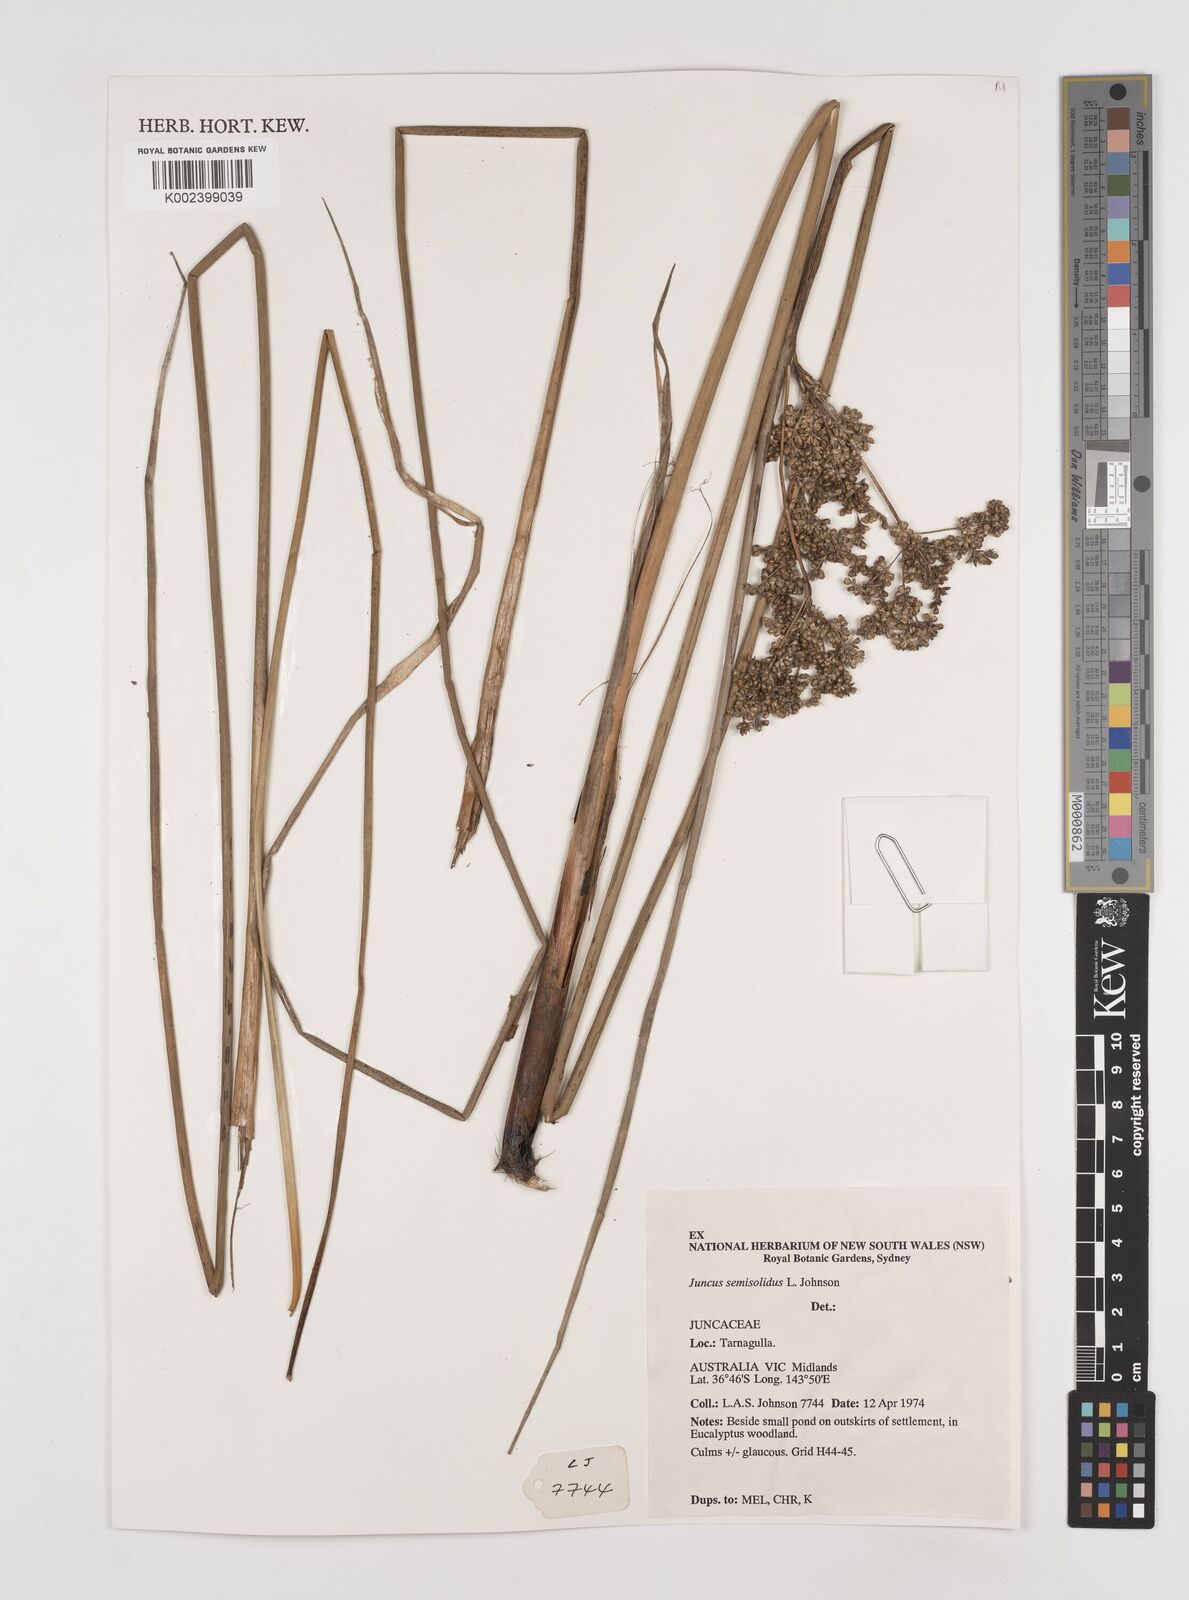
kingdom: Plantae
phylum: Tracheophyta
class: Liliopsida
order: Poales
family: Juncaceae
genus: Juncus
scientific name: Juncus semisolidus
